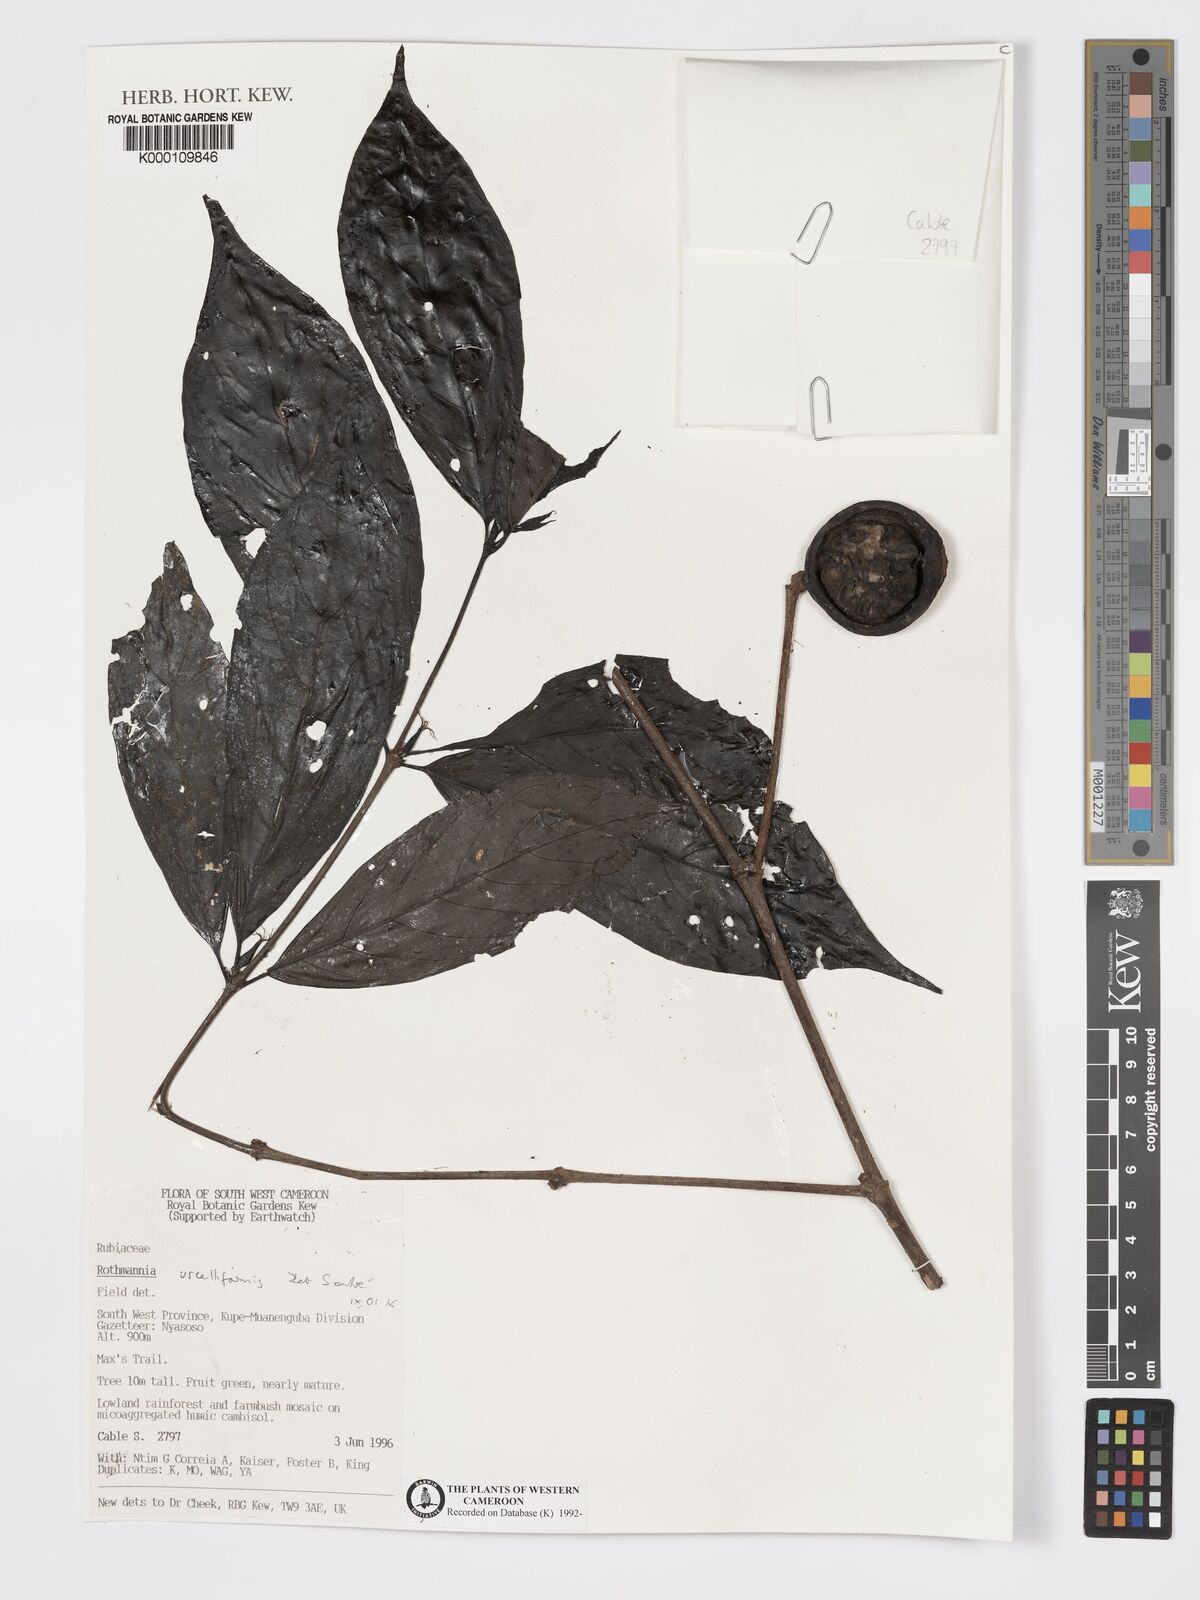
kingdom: Plantae
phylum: Tracheophyta
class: Magnoliopsida
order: Gentianales
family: Rubiaceae
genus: Rothmannia
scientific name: Rothmannia urcelliformis
